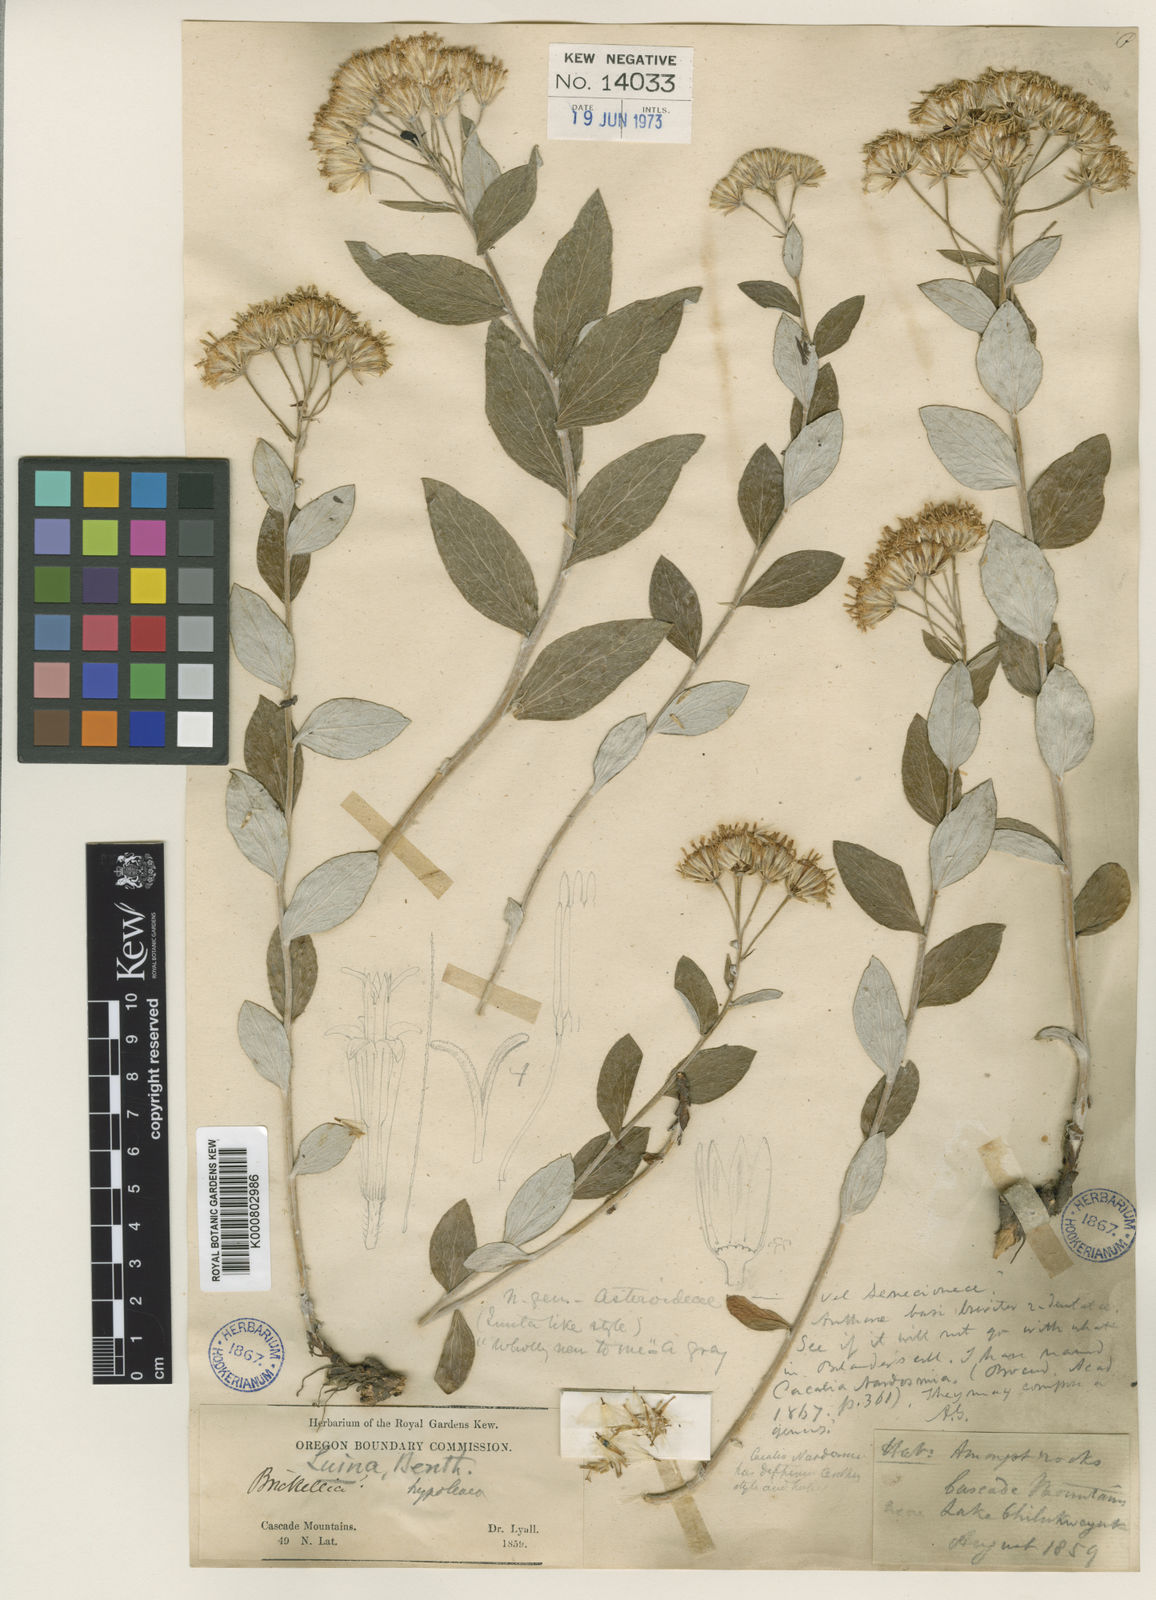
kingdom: Plantae
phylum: Tracheophyta
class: Magnoliopsida
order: Asterales
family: Asteraceae
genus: Luina
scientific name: Luina hypoleuca
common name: Little-leaved luina
